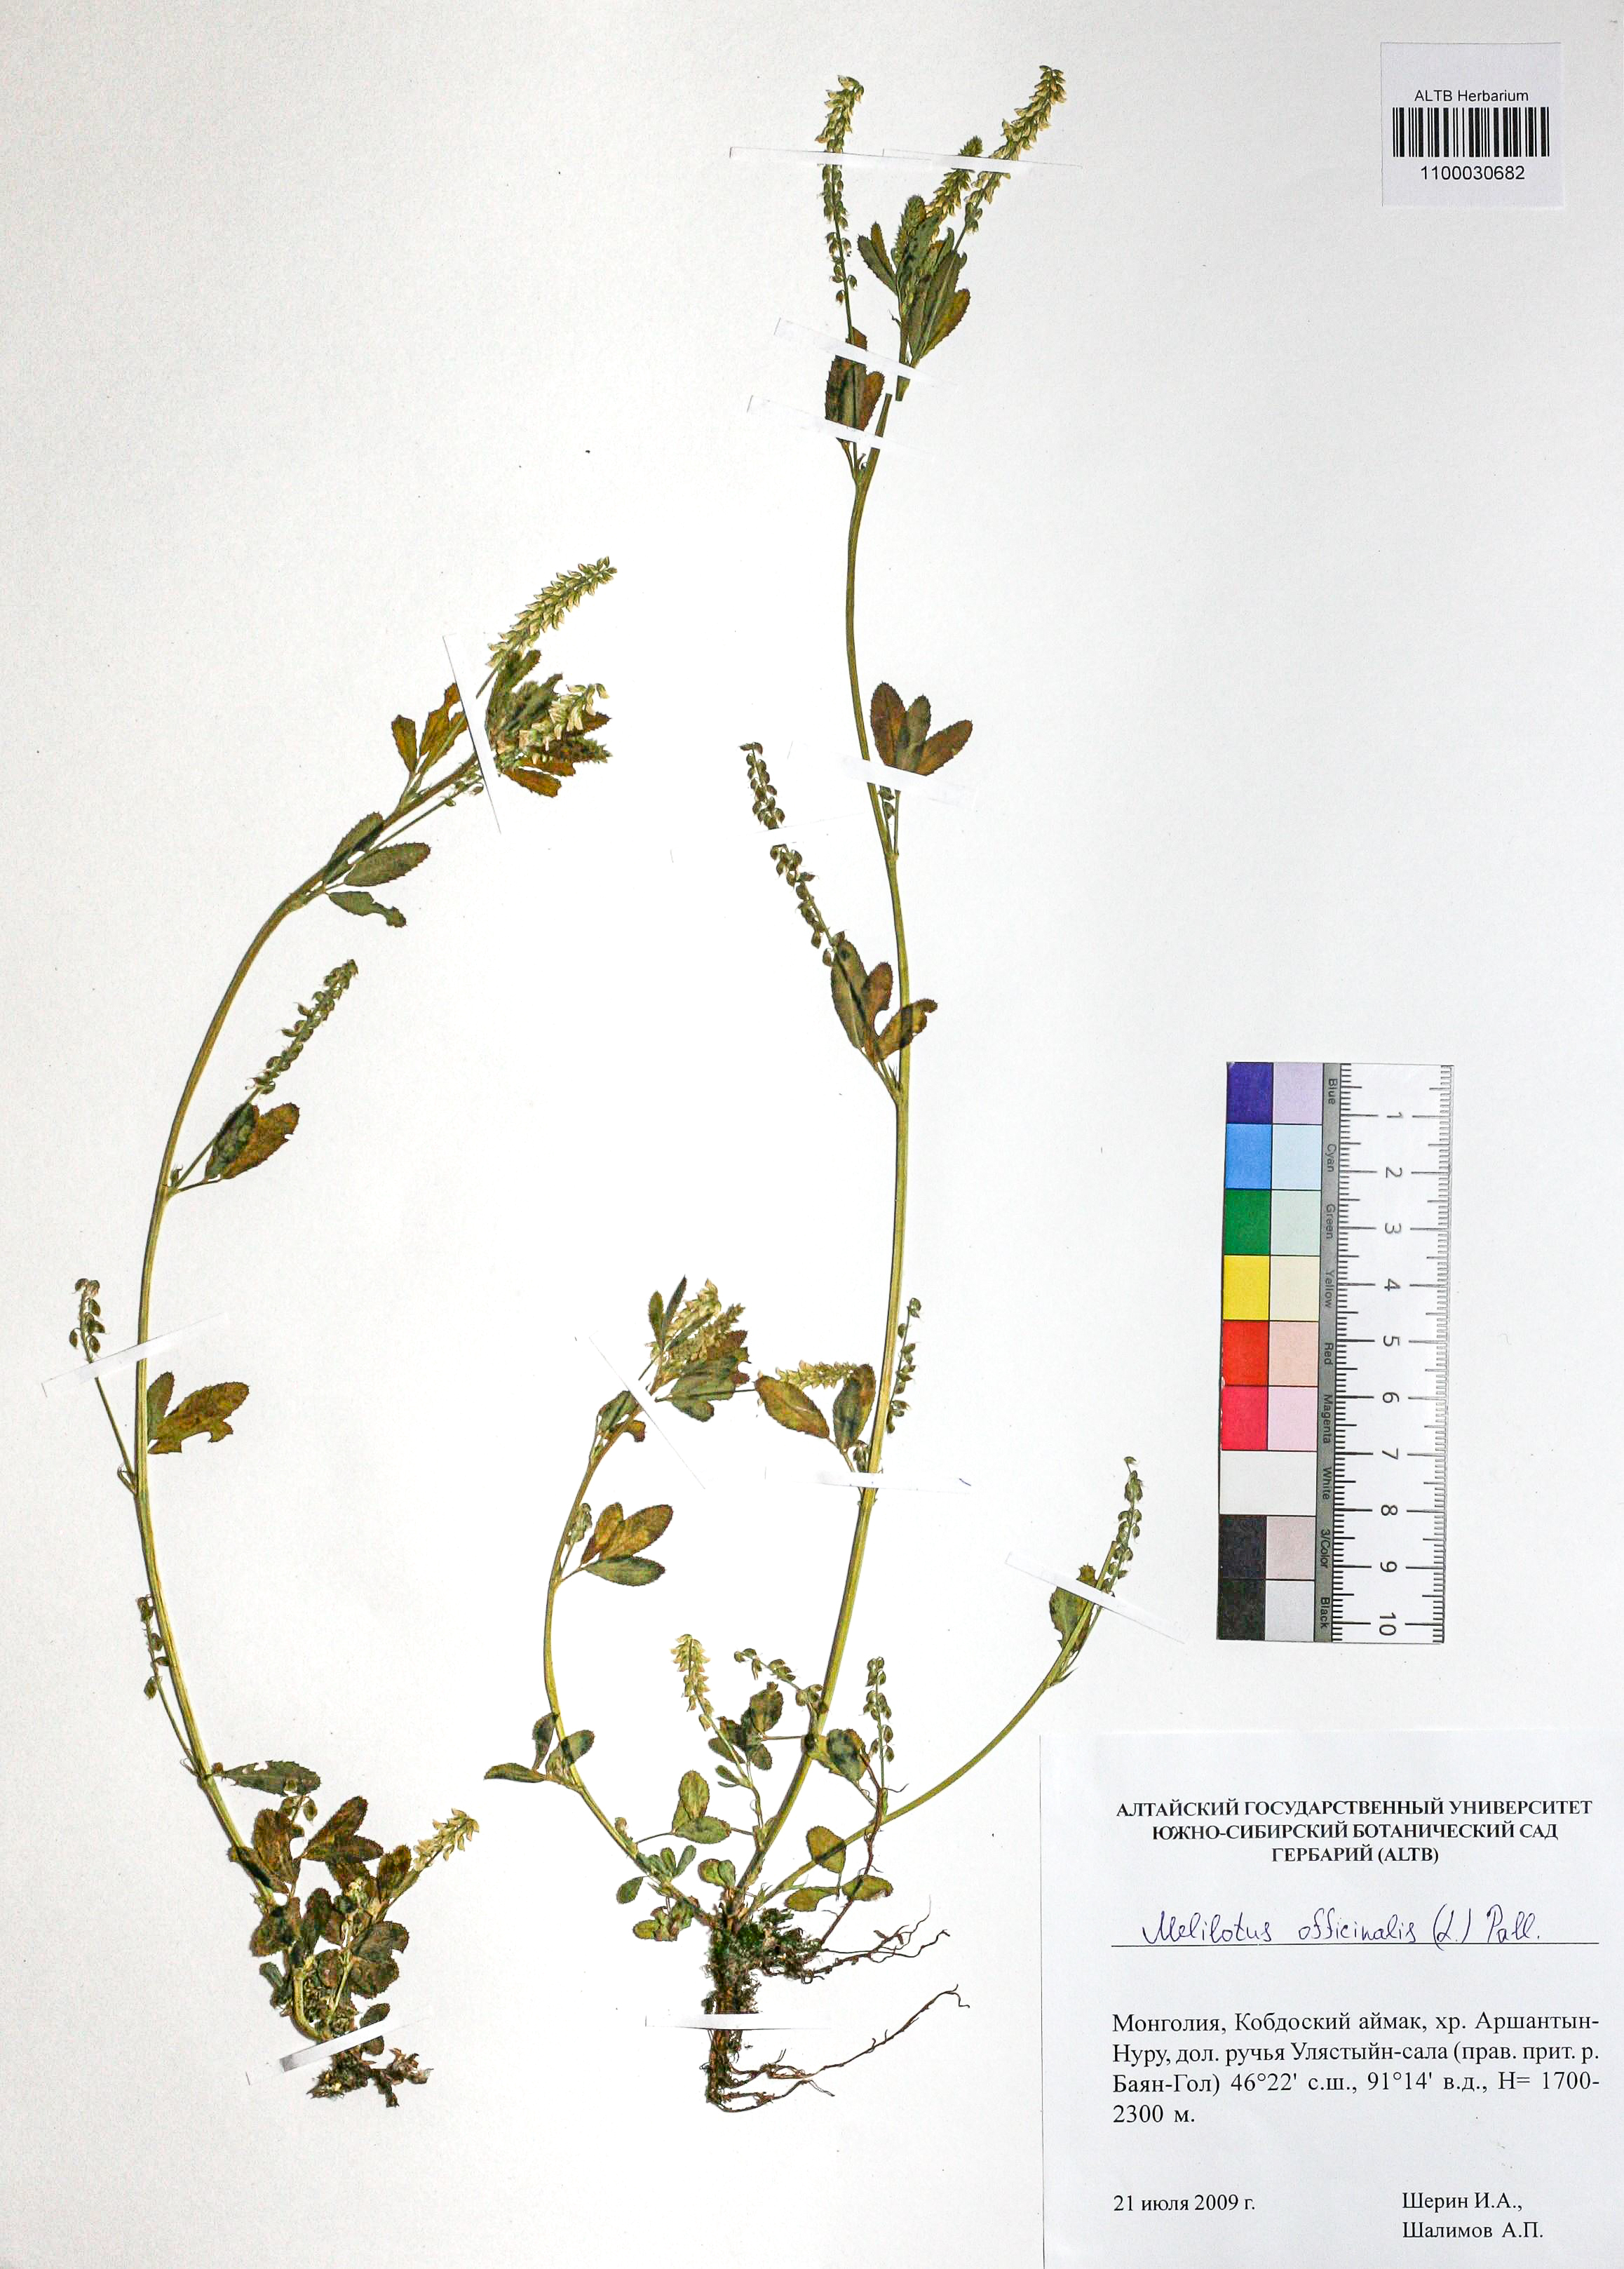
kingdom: Plantae
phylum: Tracheophyta
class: Magnoliopsida
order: Fabales
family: Fabaceae
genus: Melilotus
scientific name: Melilotus officinalis
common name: Sweetclover
